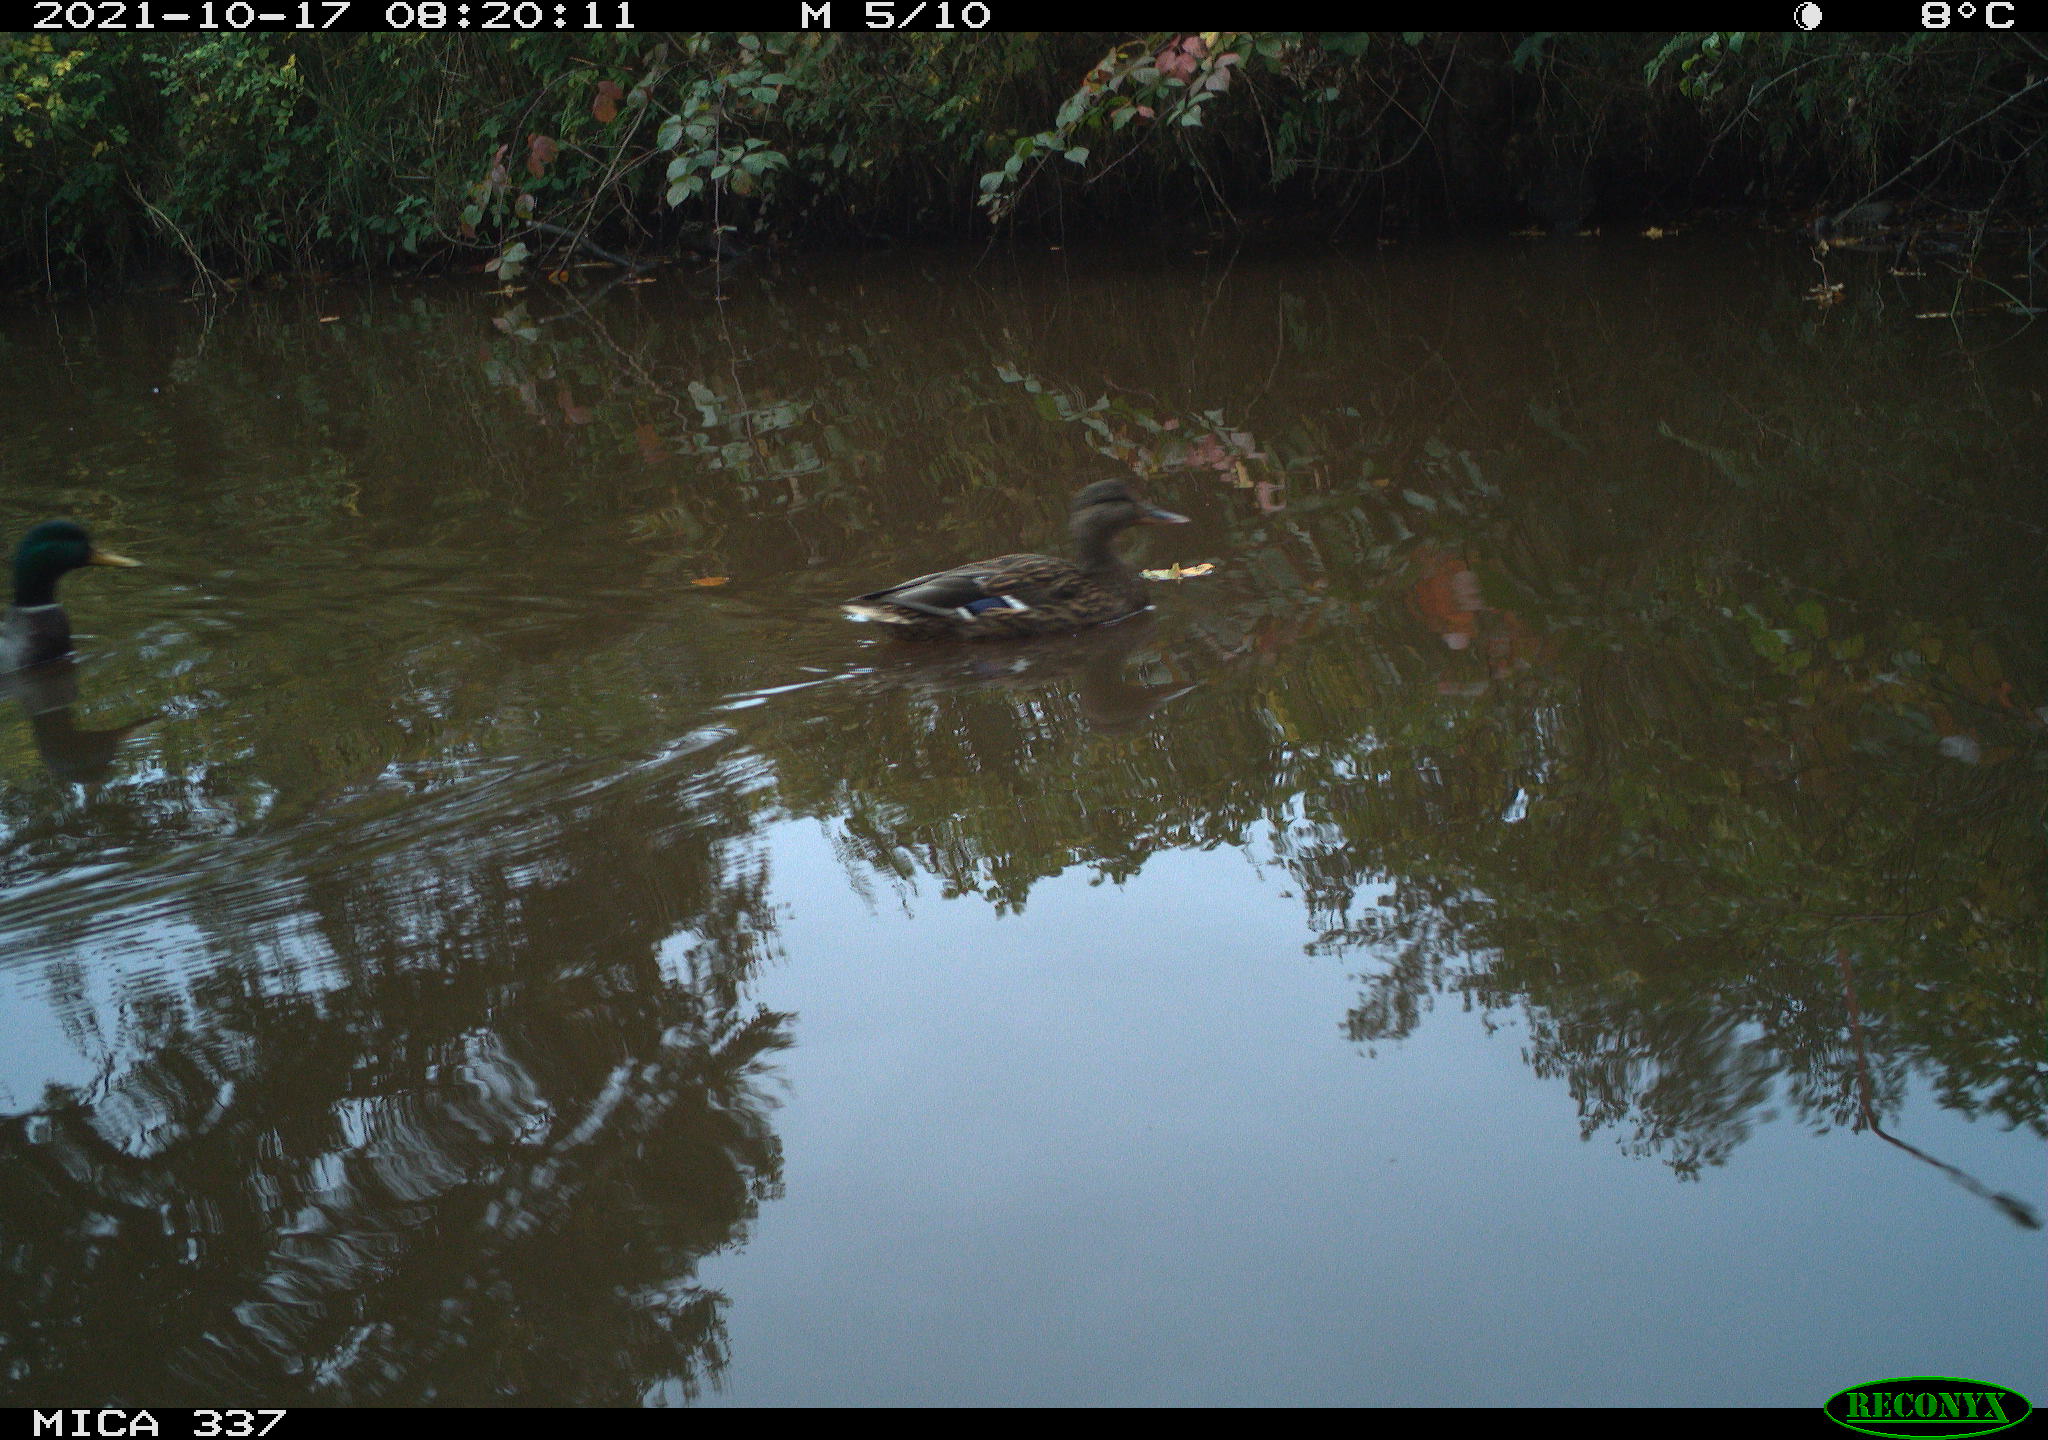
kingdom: Animalia
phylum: Chordata
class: Aves
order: Anseriformes
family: Anatidae
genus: Anas
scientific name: Anas platyrhynchos
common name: Mallard
